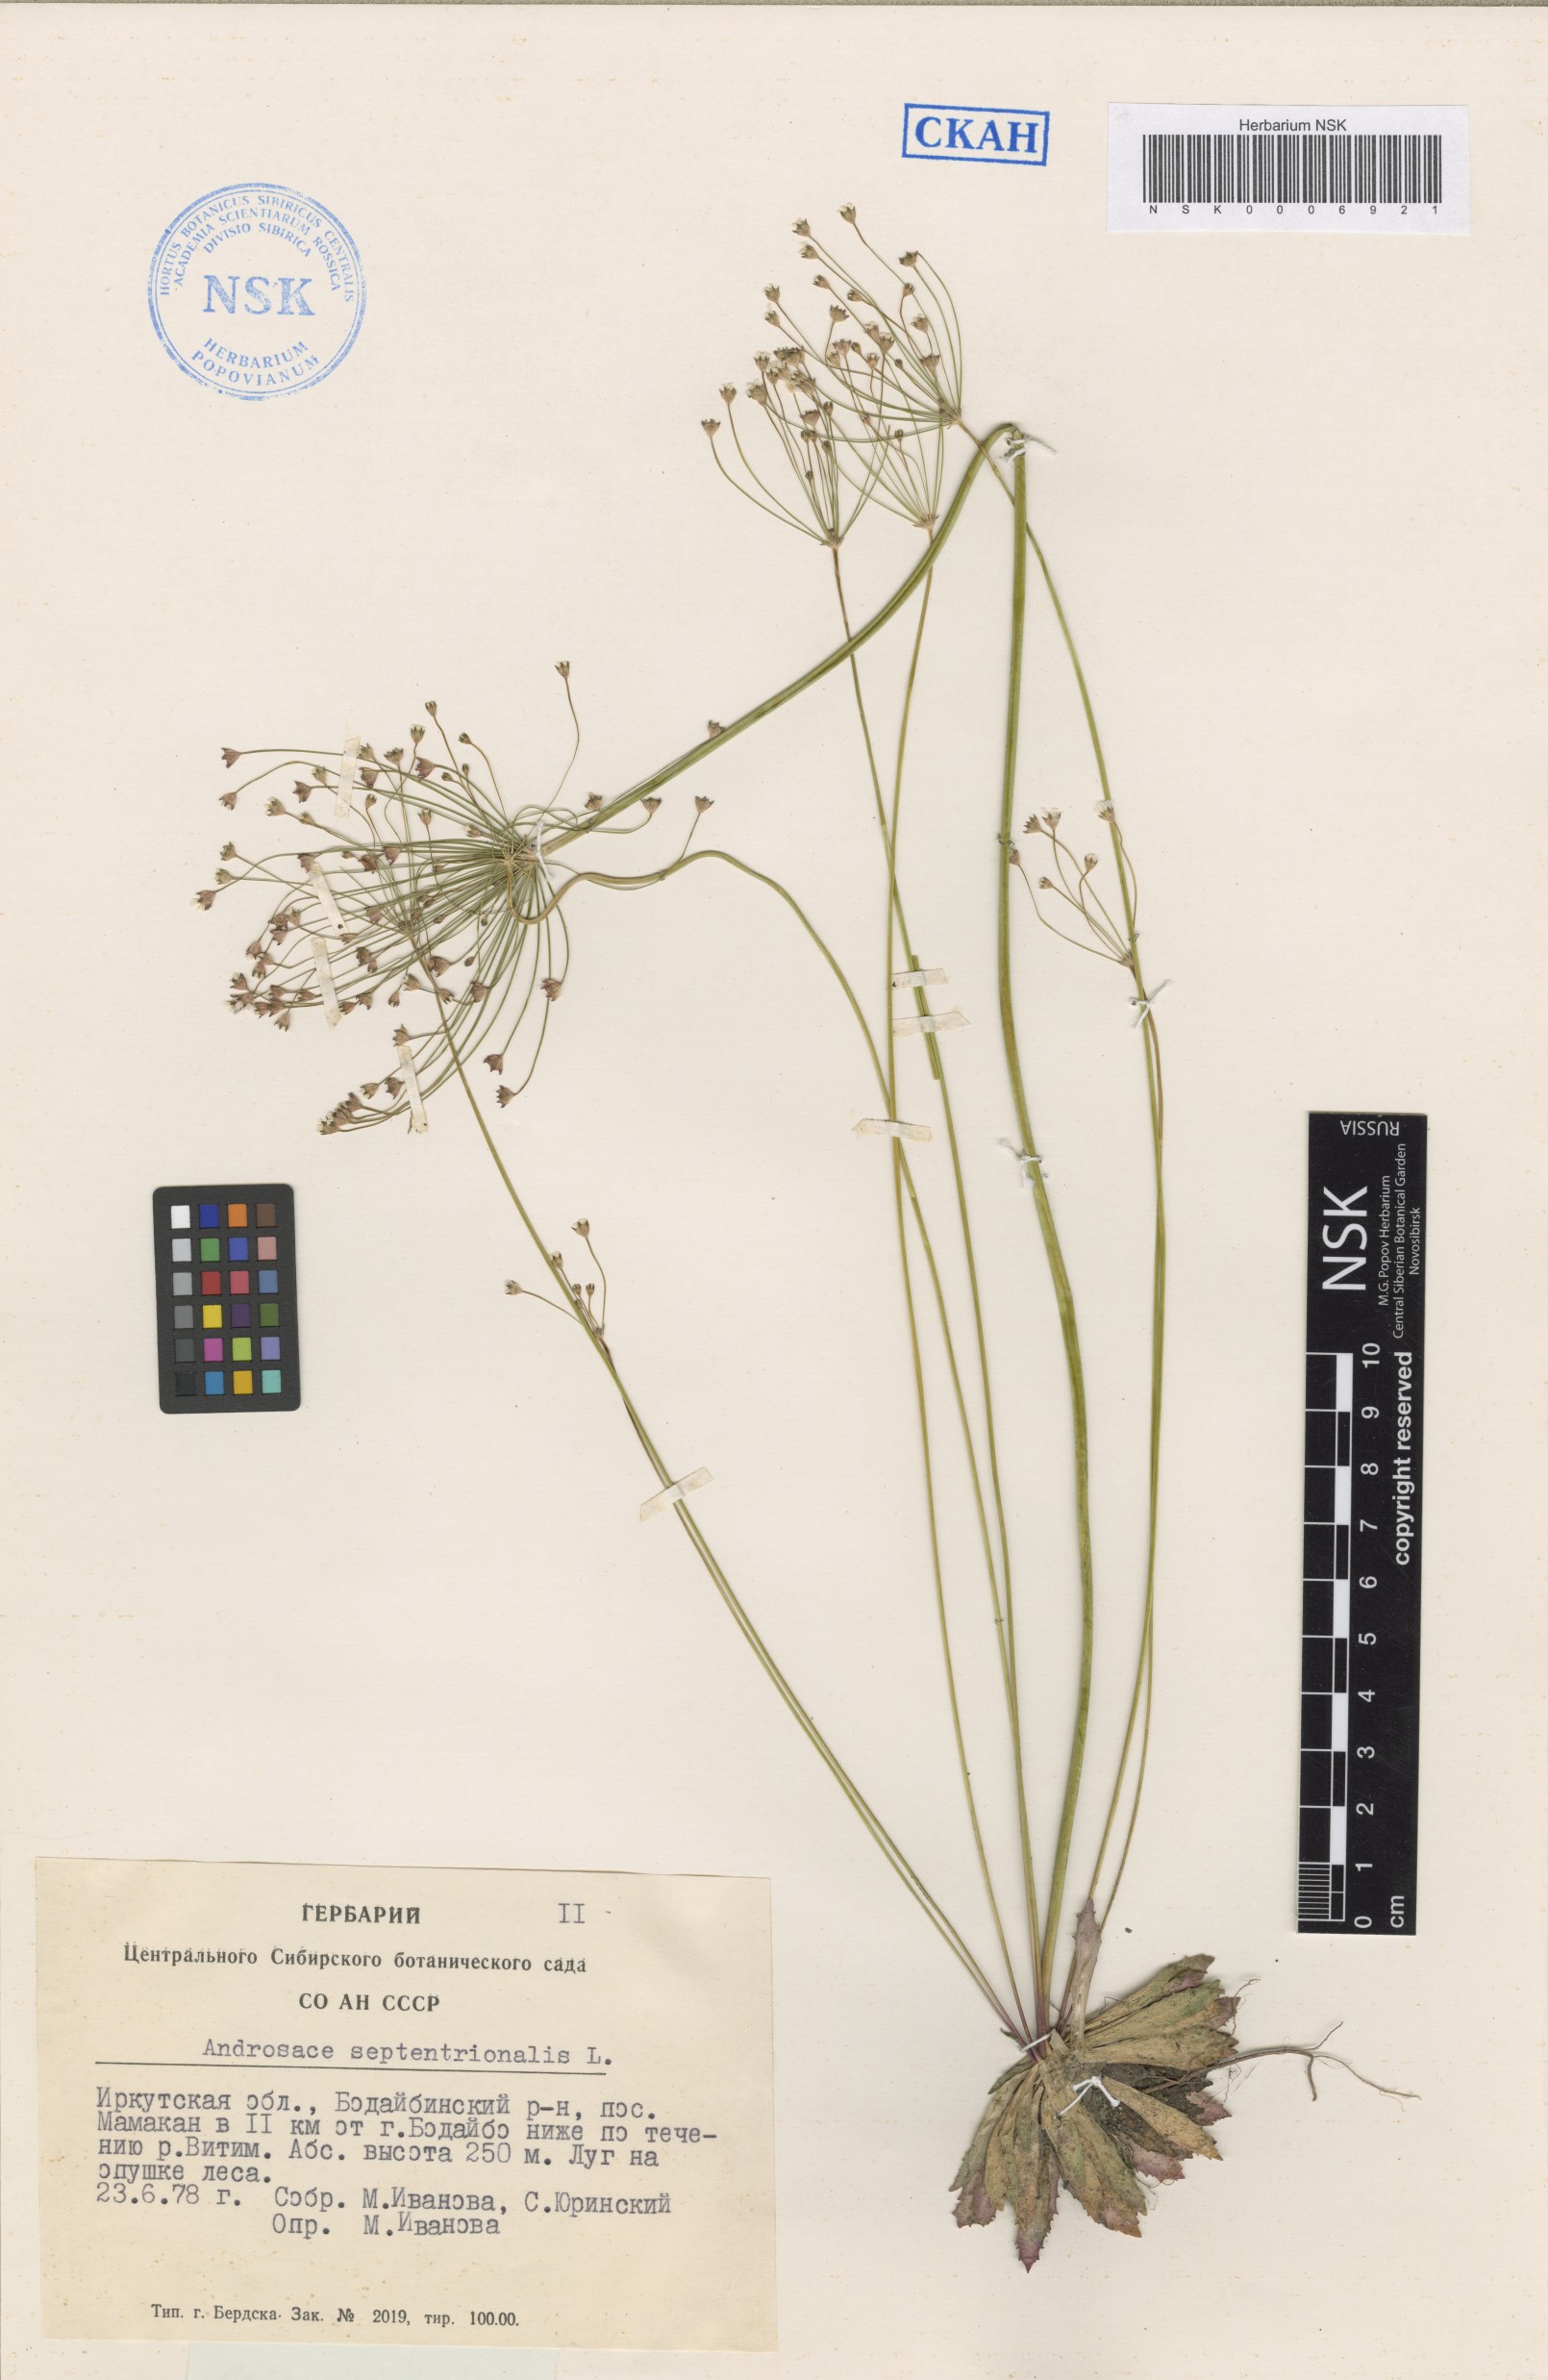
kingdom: Plantae
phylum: Tracheophyta
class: Magnoliopsida
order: Ericales
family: Primulaceae
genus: Androsace
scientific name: Androsace septentrionalis
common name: Hairy northern fairy-candelabra
